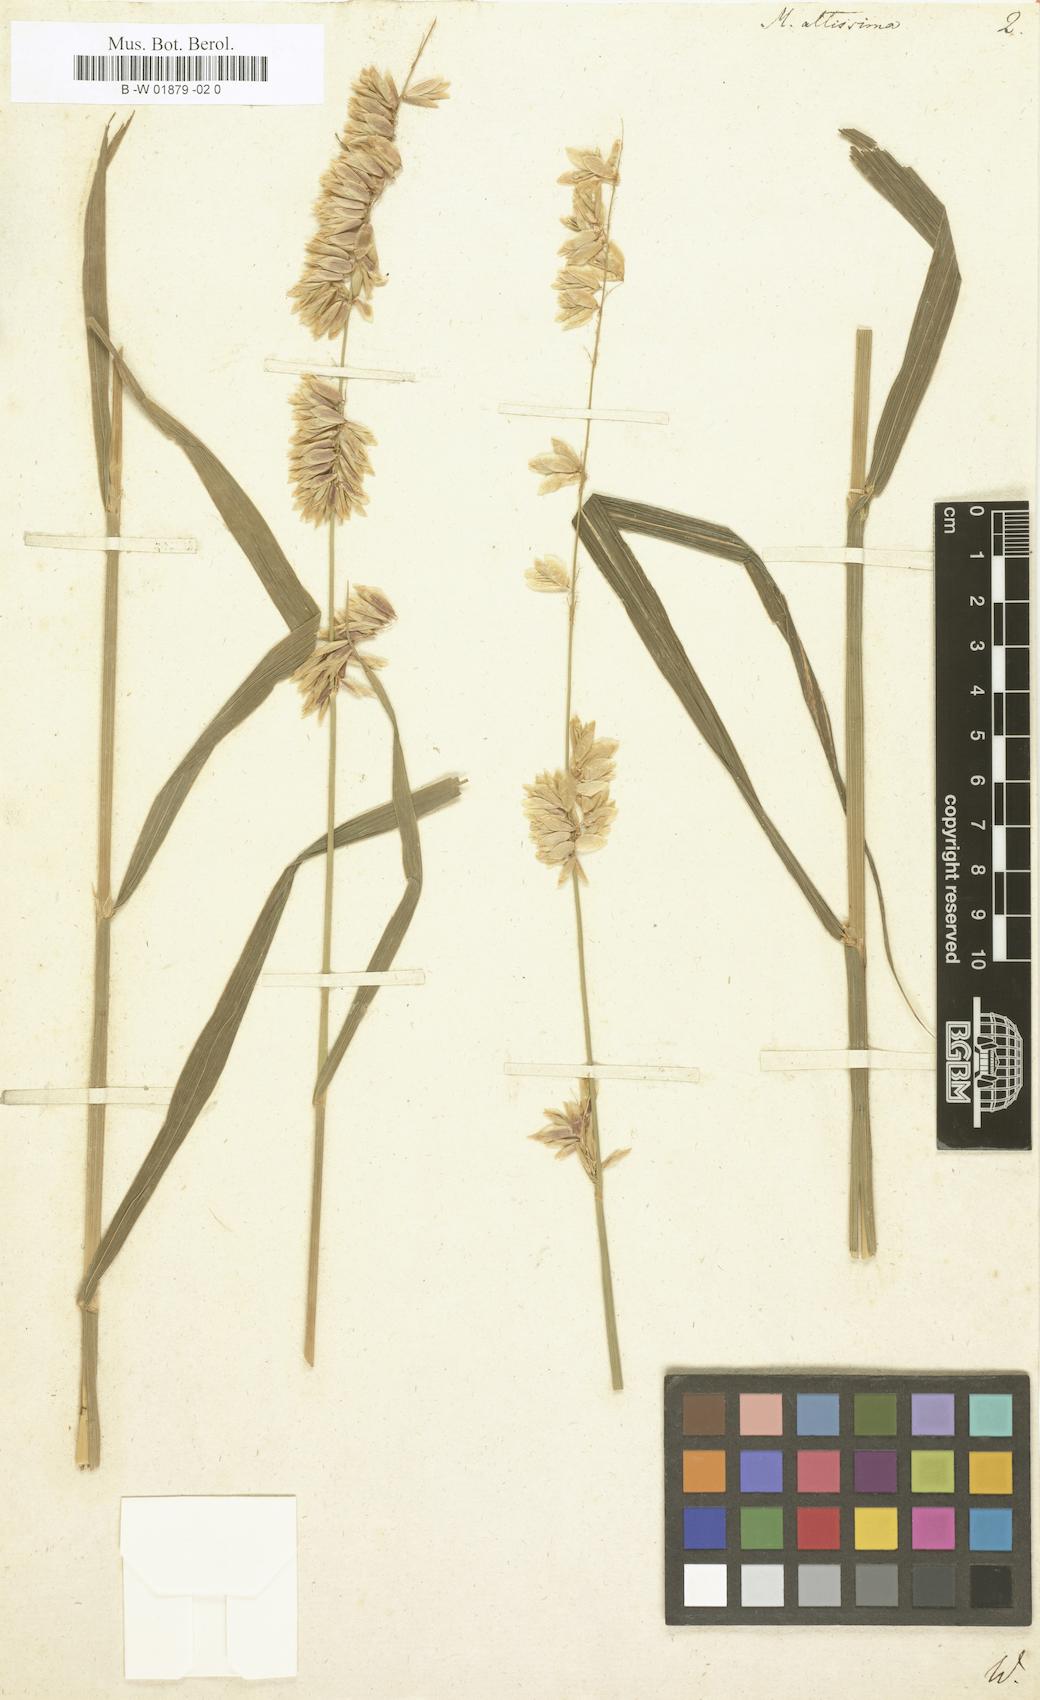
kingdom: Plantae
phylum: Tracheophyta
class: Liliopsida
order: Poales
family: Poaceae
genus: Melica
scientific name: Melica altissima
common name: Siberian melicgrass
